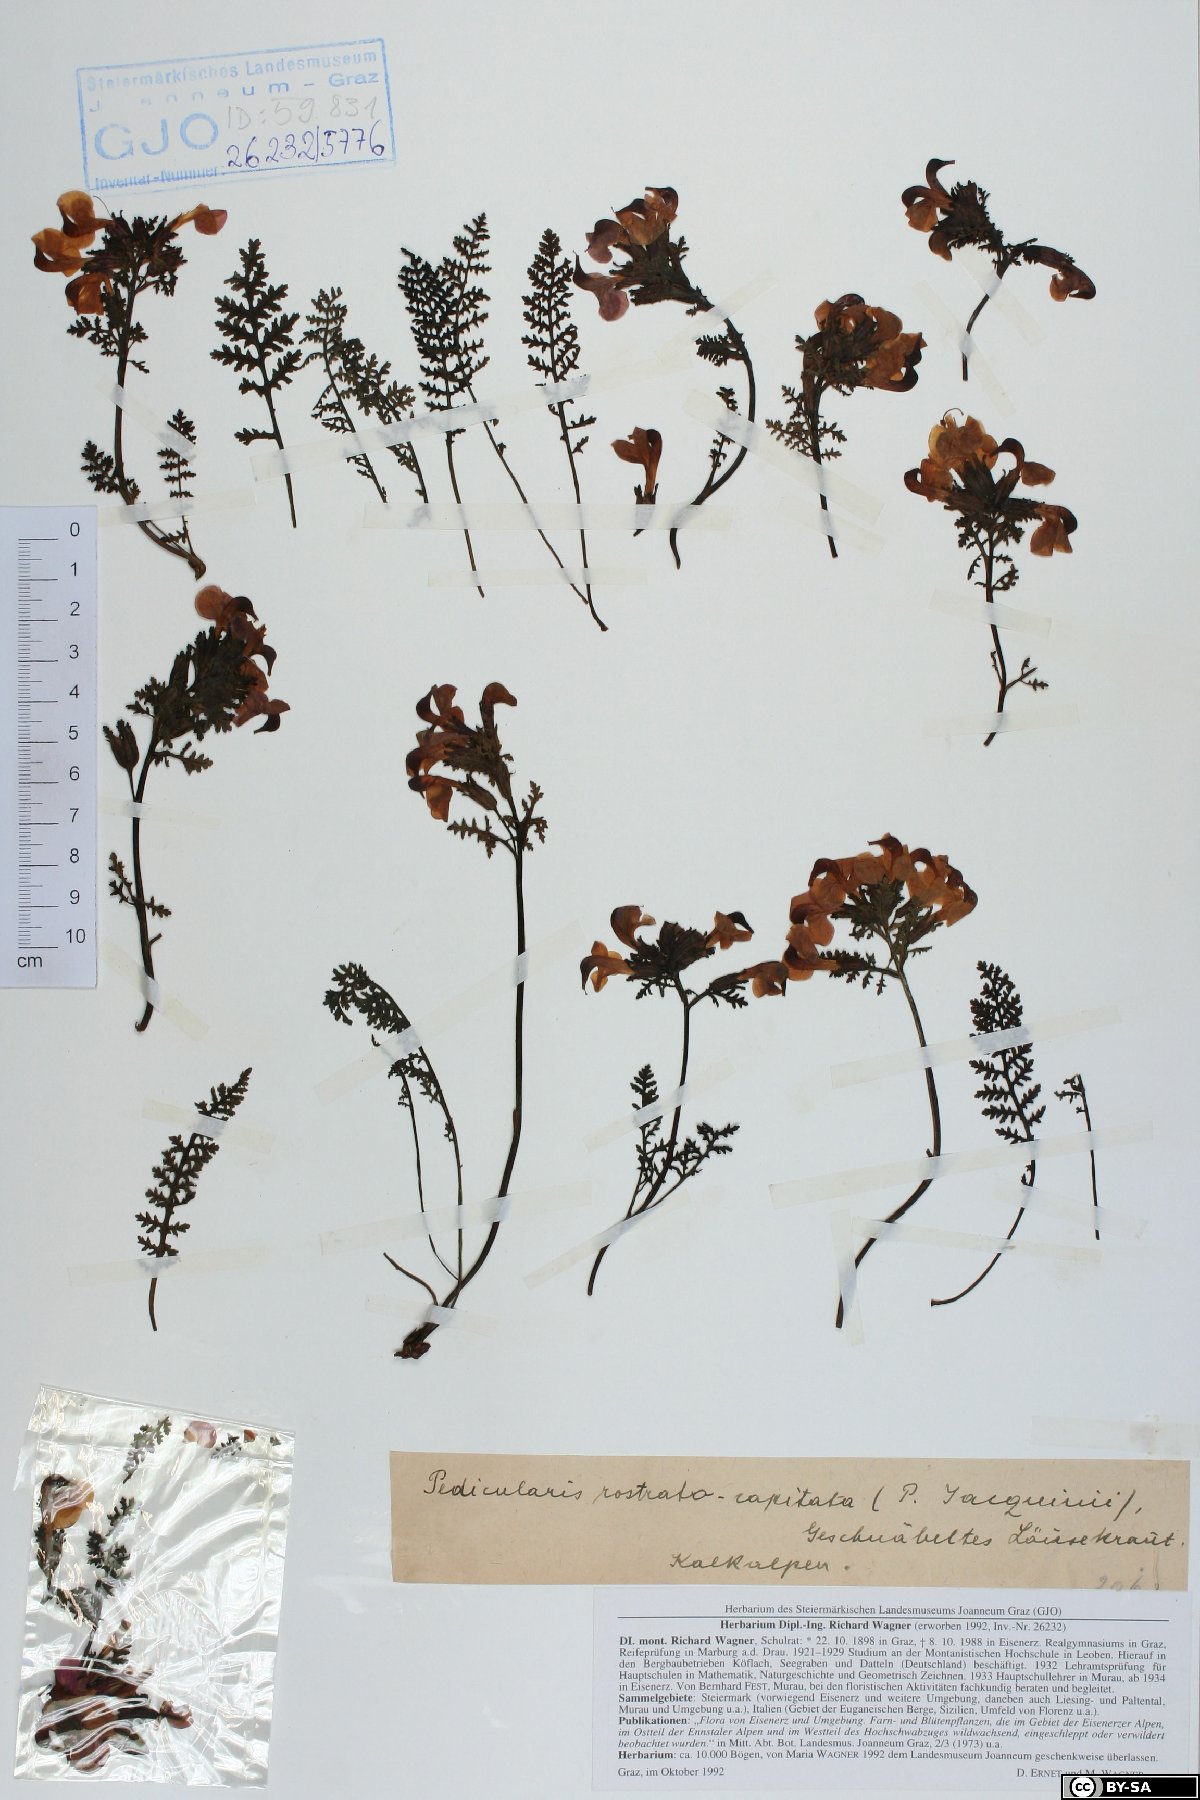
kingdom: Plantae
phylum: Tracheophyta
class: Magnoliopsida
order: Lamiales
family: Orobanchaceae
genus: Pedicularis
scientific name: Pedicularis rostratocapitata
